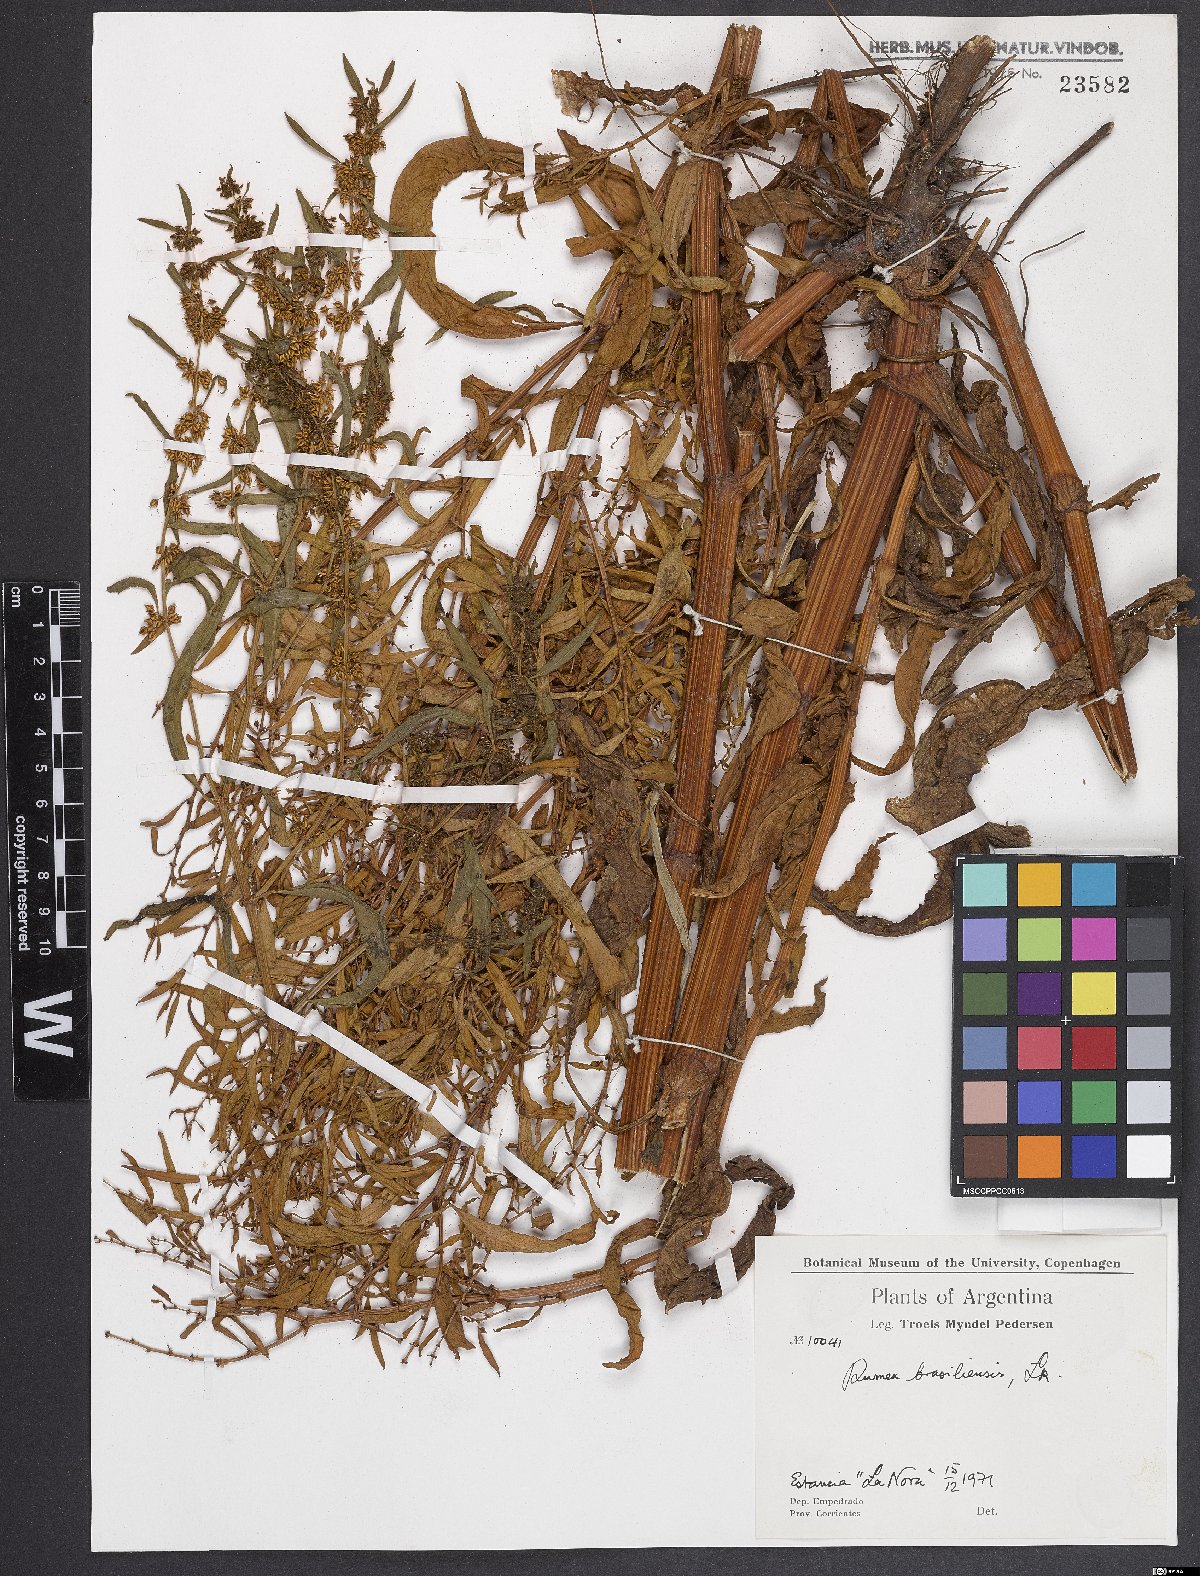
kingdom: Plantae
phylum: Tracheophyta
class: Magnoliopsida
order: Caryophyllales
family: Polygonaceae
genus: Rumex
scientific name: Rumex
